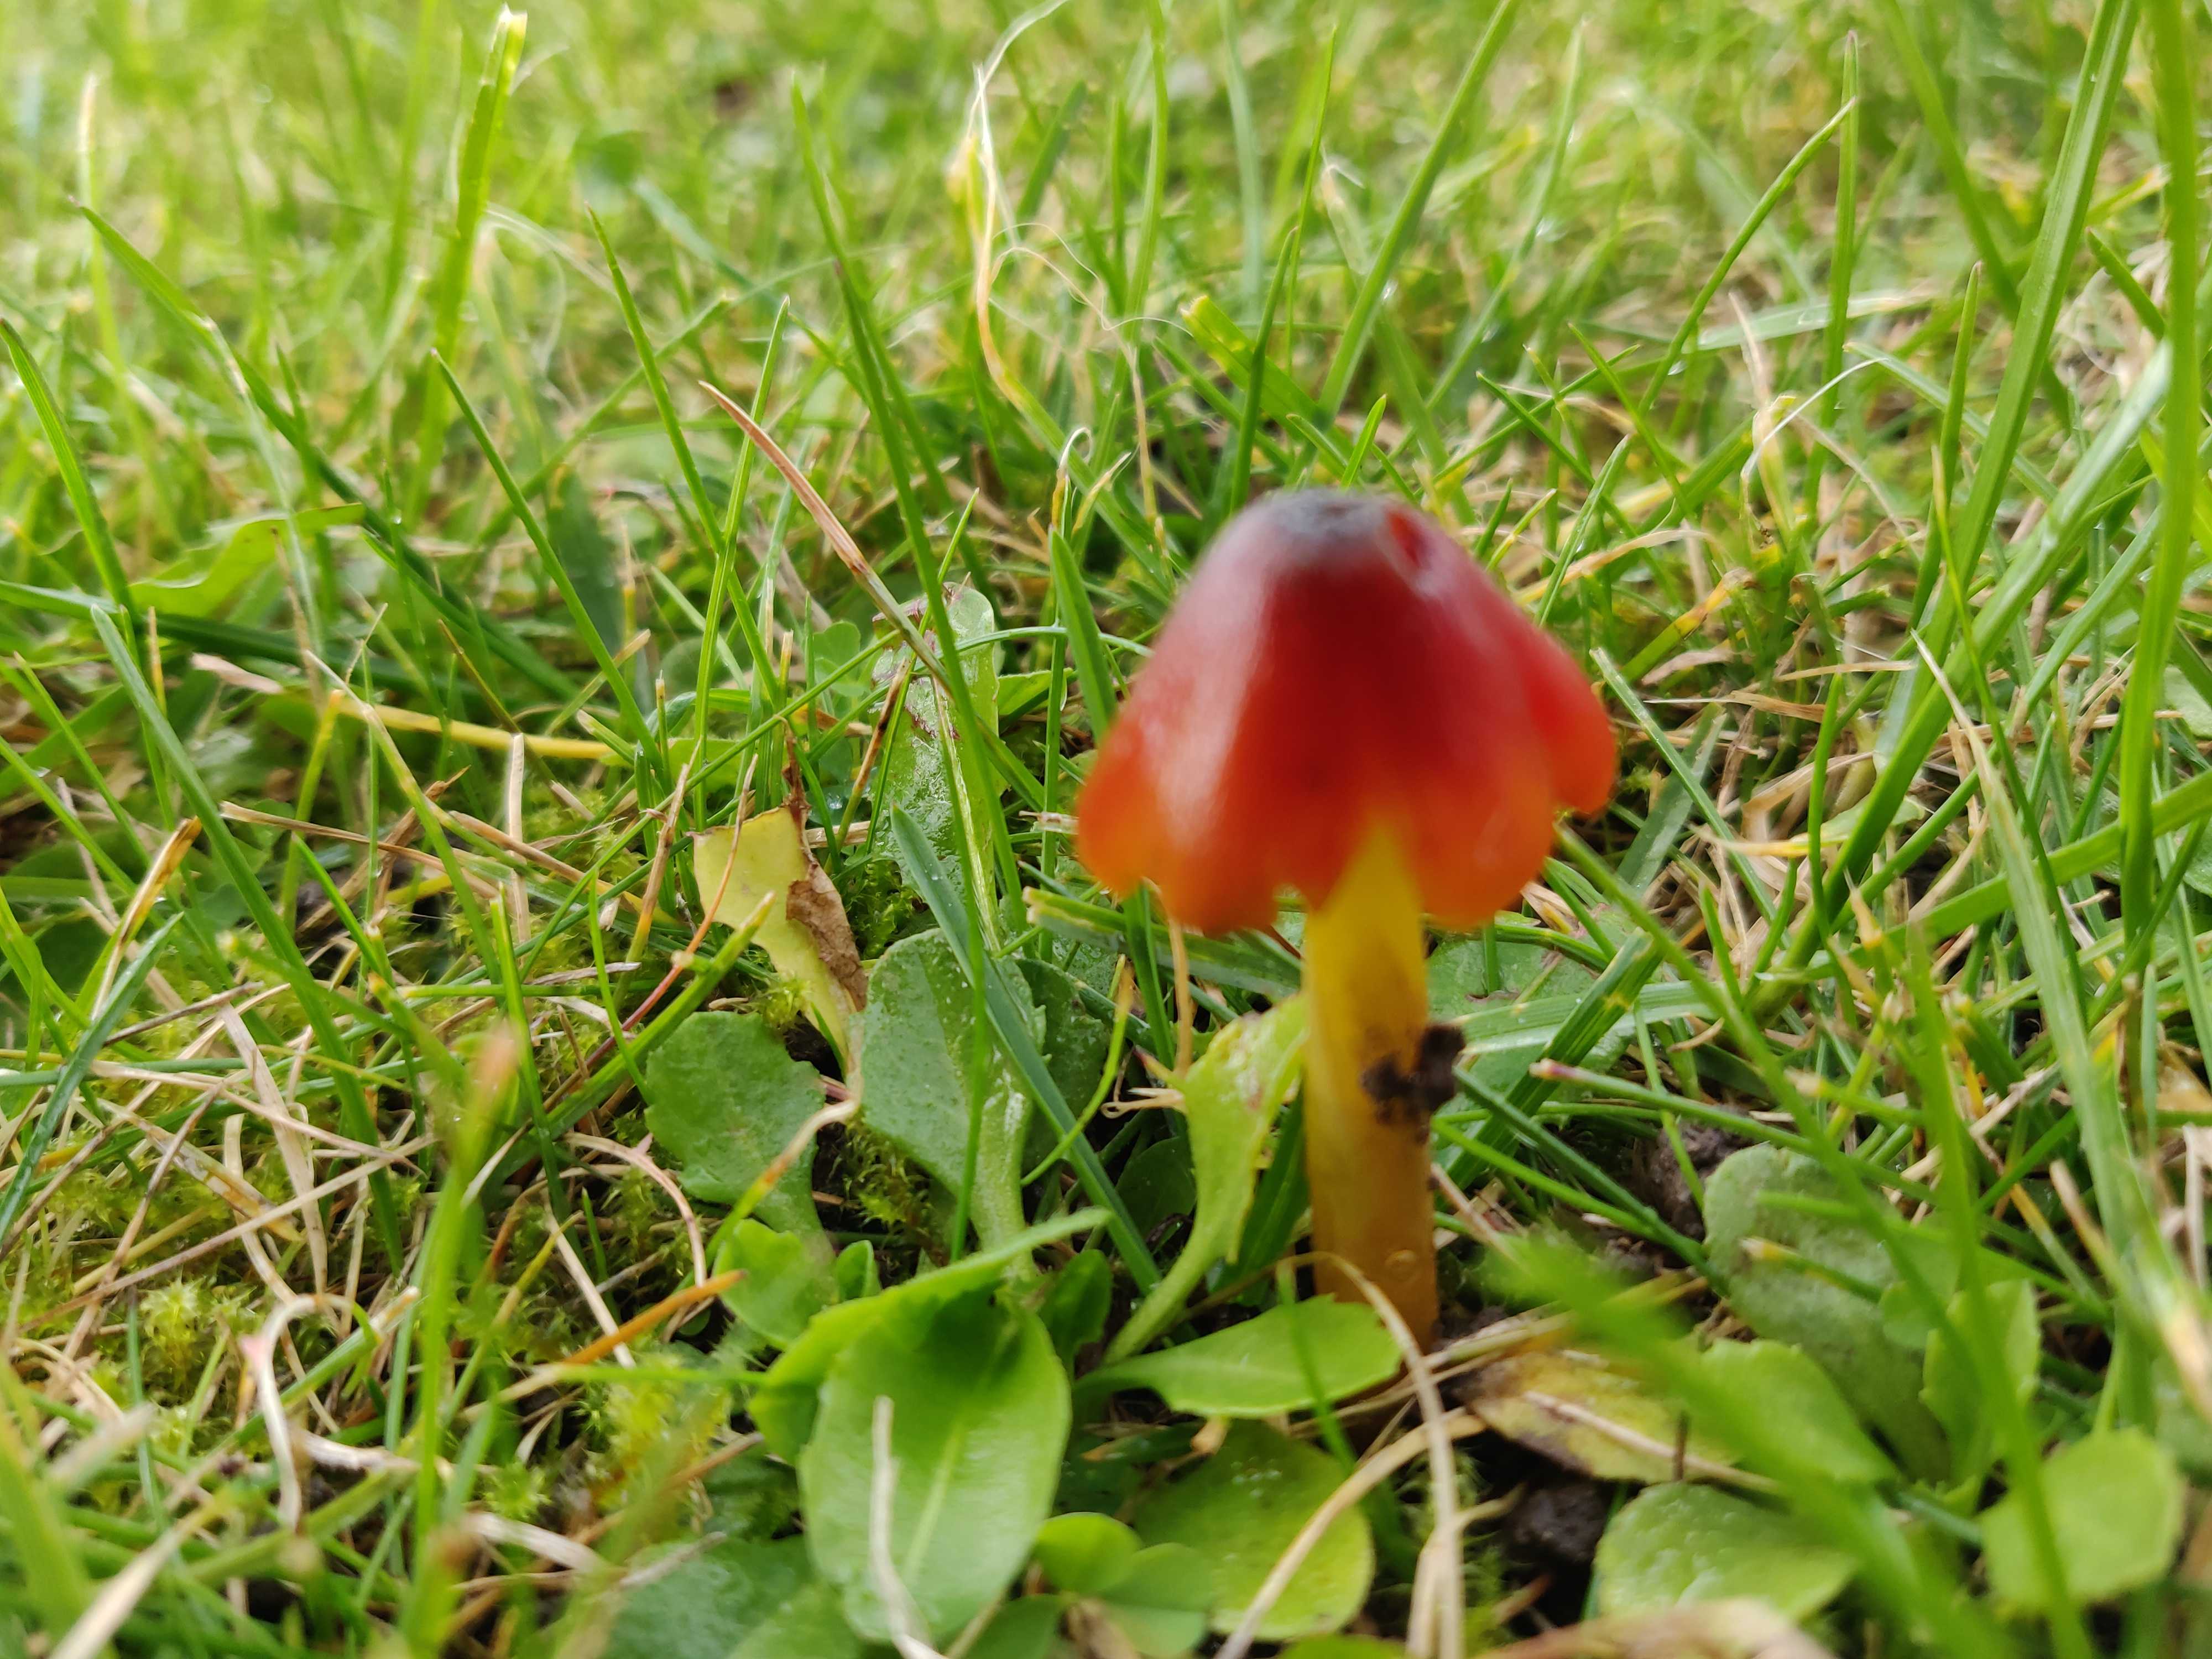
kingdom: Fungi
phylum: Basidiomycota
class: Agaricomycetes
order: Agaricales
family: Hygrophoraceae
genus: Hygrocybe
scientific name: Hygrocybe conica
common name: kegle-vokshat
